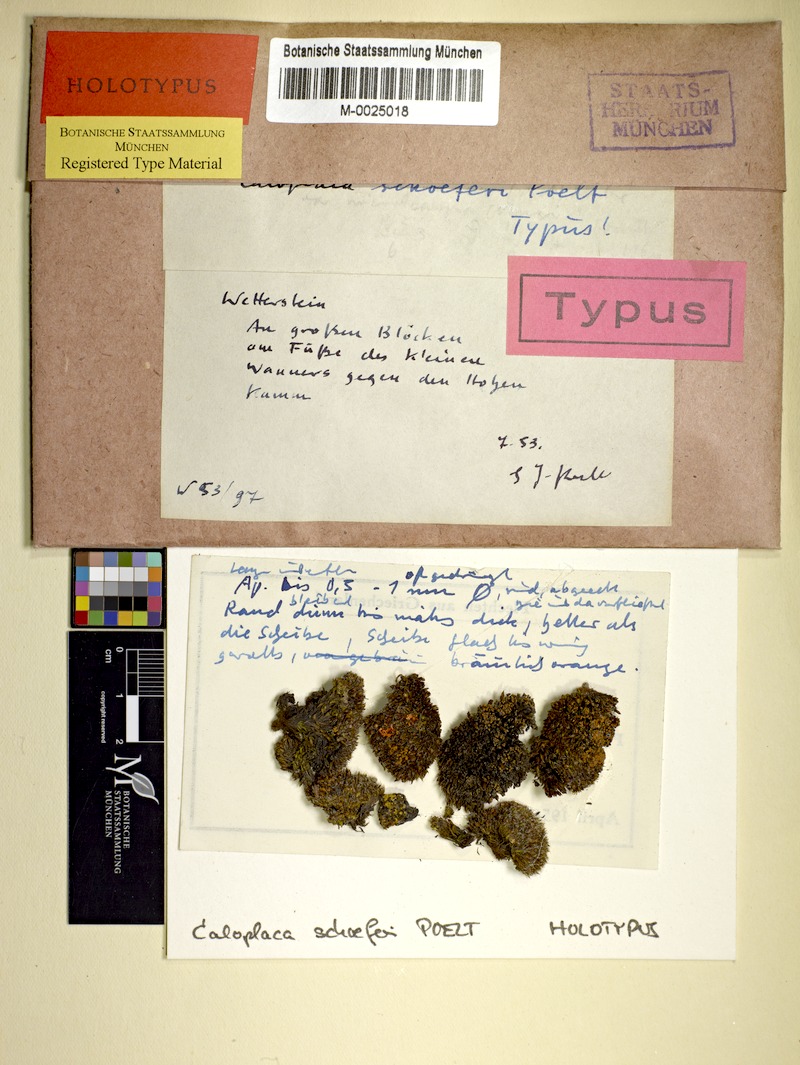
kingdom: Fungi
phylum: Ascomycota
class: Lecanoromycetes
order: Teloschistales
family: Teloschistaceae
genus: Athallia
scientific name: Athallia saxifragarum
